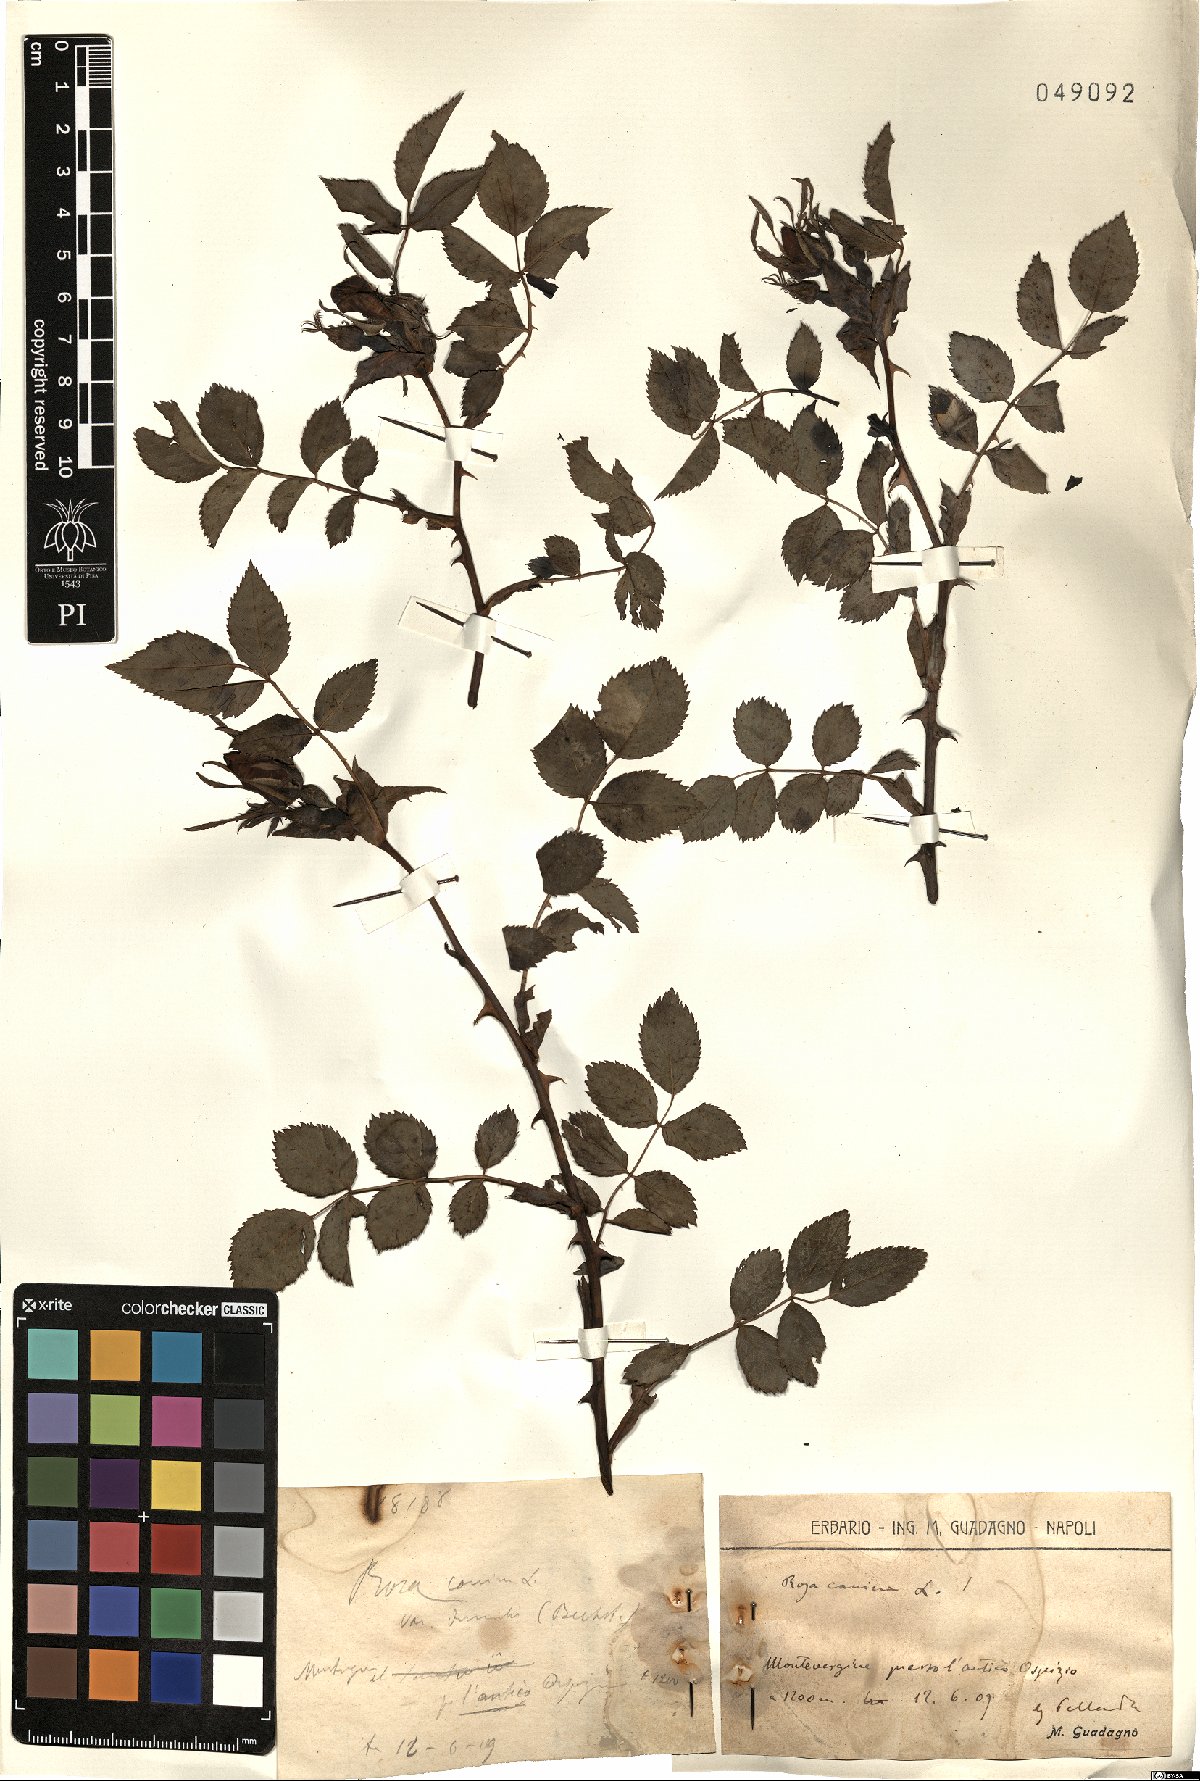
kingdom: Plantae
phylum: Tracheophyta
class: Magnoliopsida
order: Rosales
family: Rosaceae
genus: Rosa
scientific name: Rosa canina
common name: Dog rose
